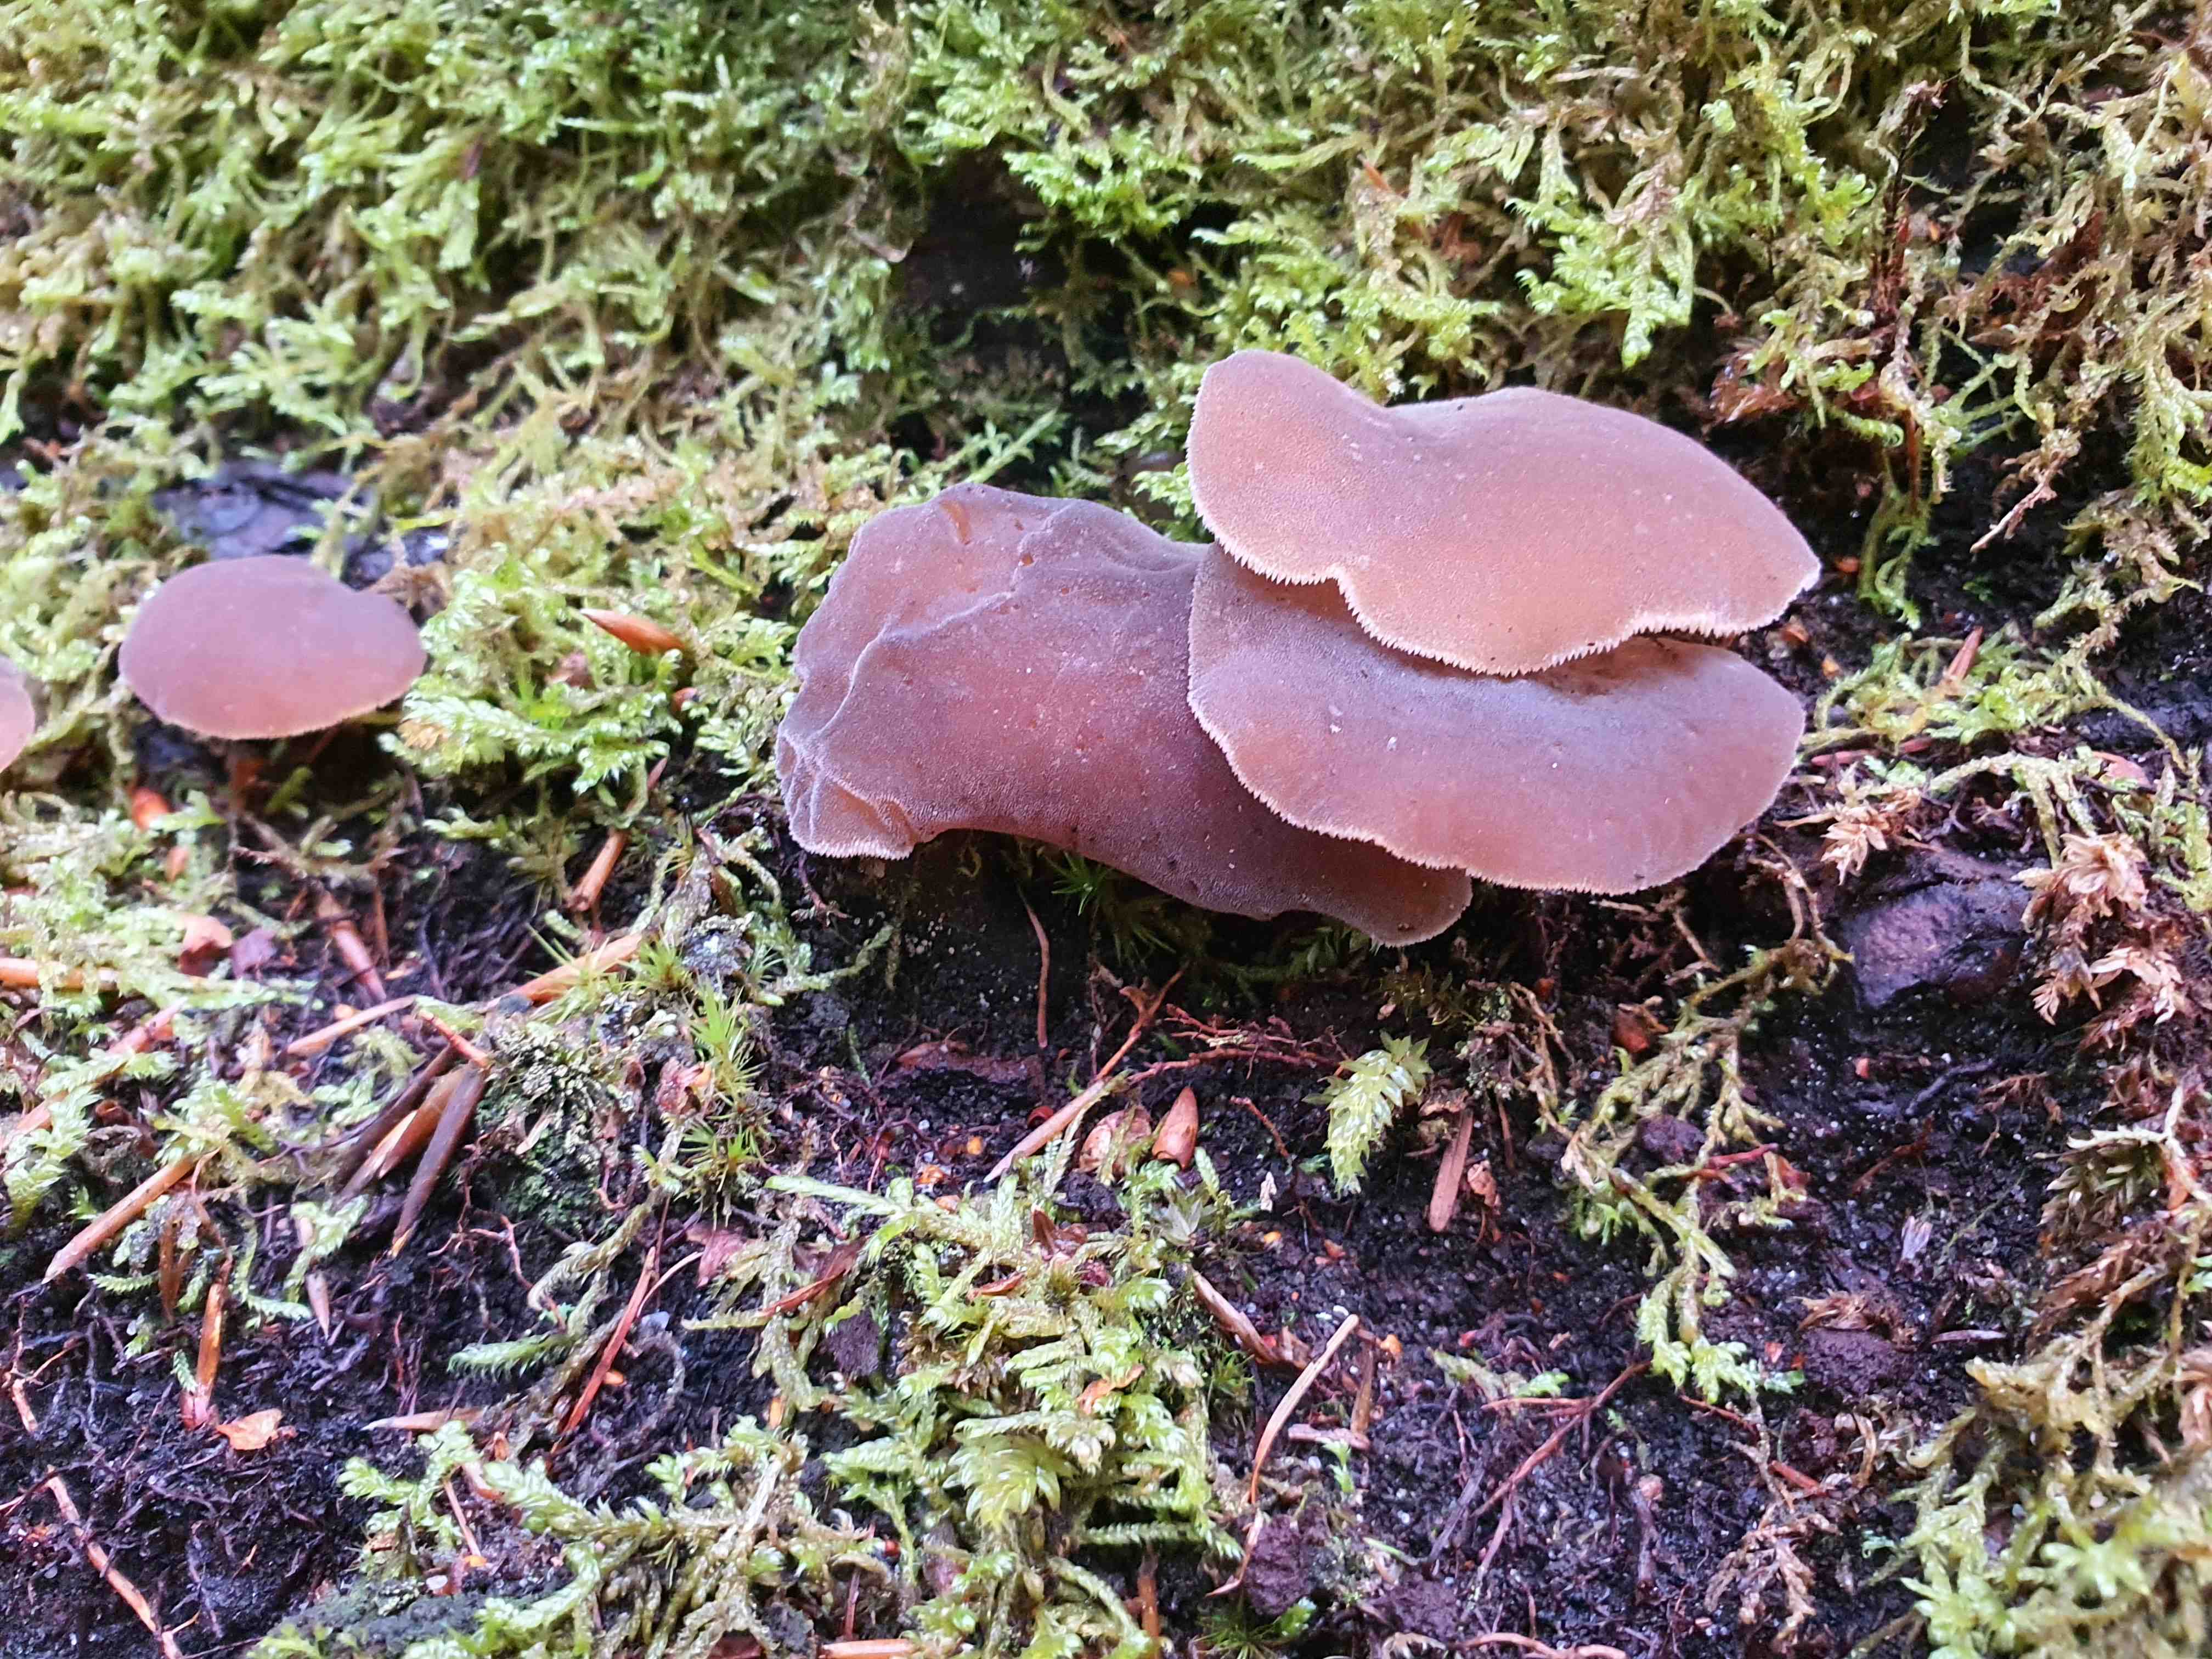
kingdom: Fungi
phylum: Basidiomycota
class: Agaricomycetes
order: Auriculariales
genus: Pseudohydnum
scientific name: Pseudohydnum gelatinosum
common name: bævretand
